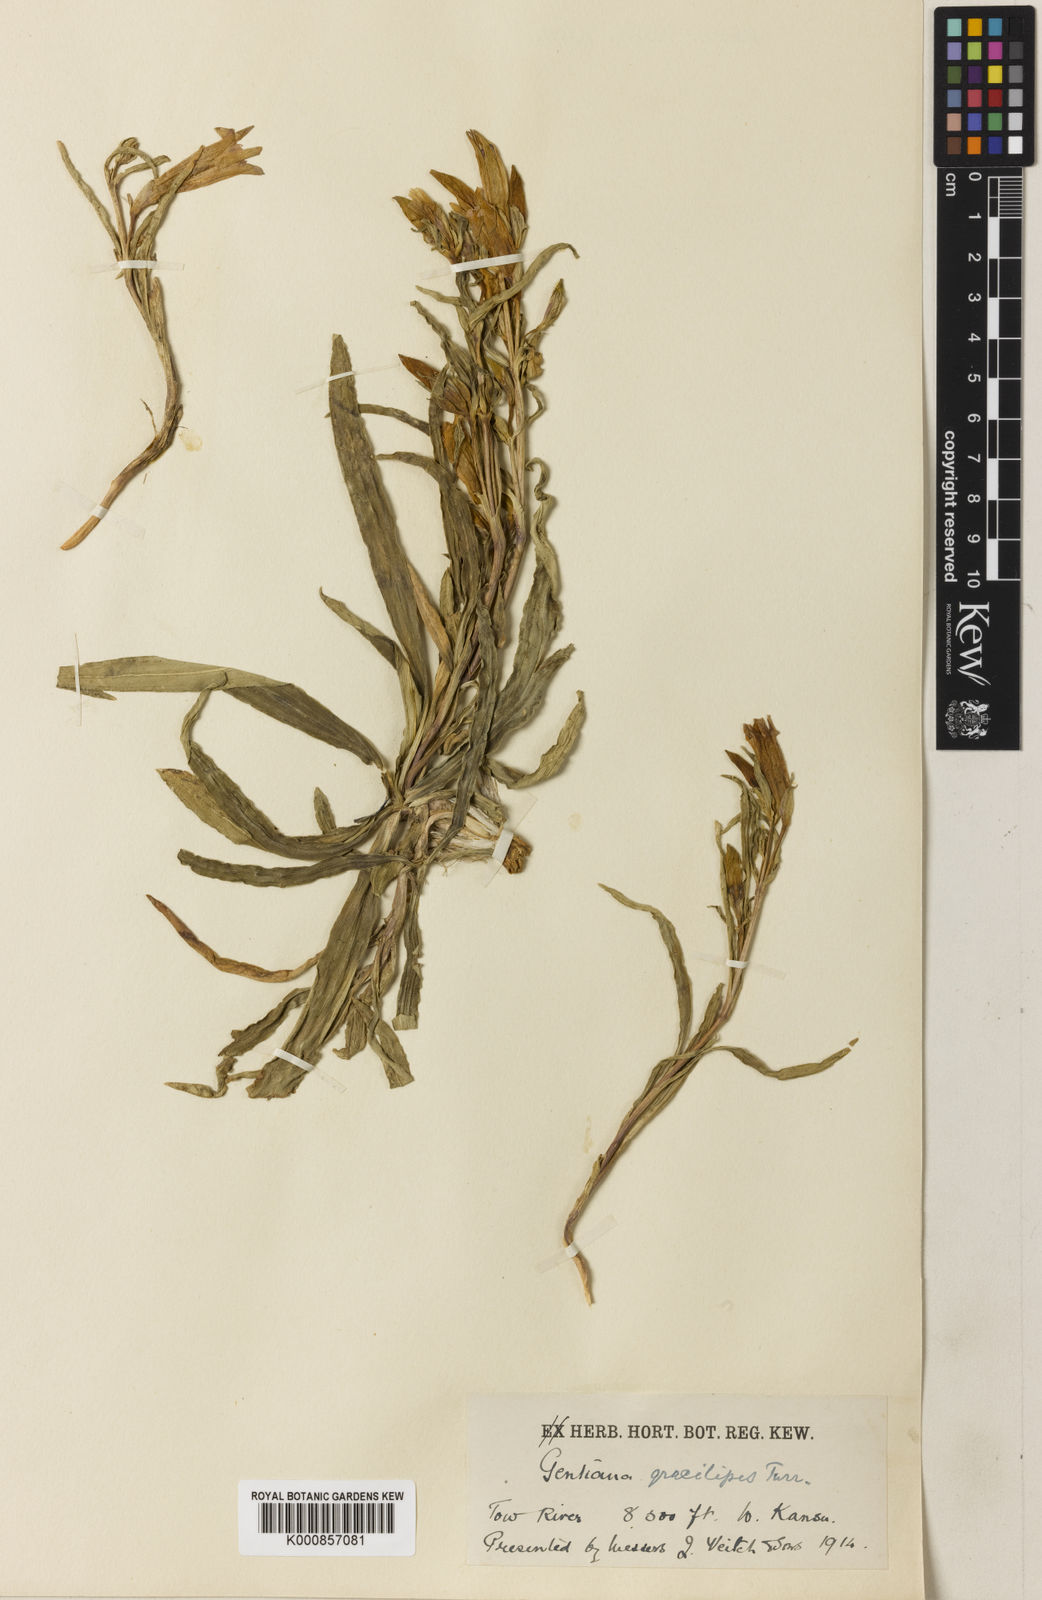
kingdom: Plantae
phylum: Tracheophyta
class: Magnoliopsida
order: Gentianales
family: Gentianaceae
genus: Gentiana
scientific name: Gentiana dahurica
